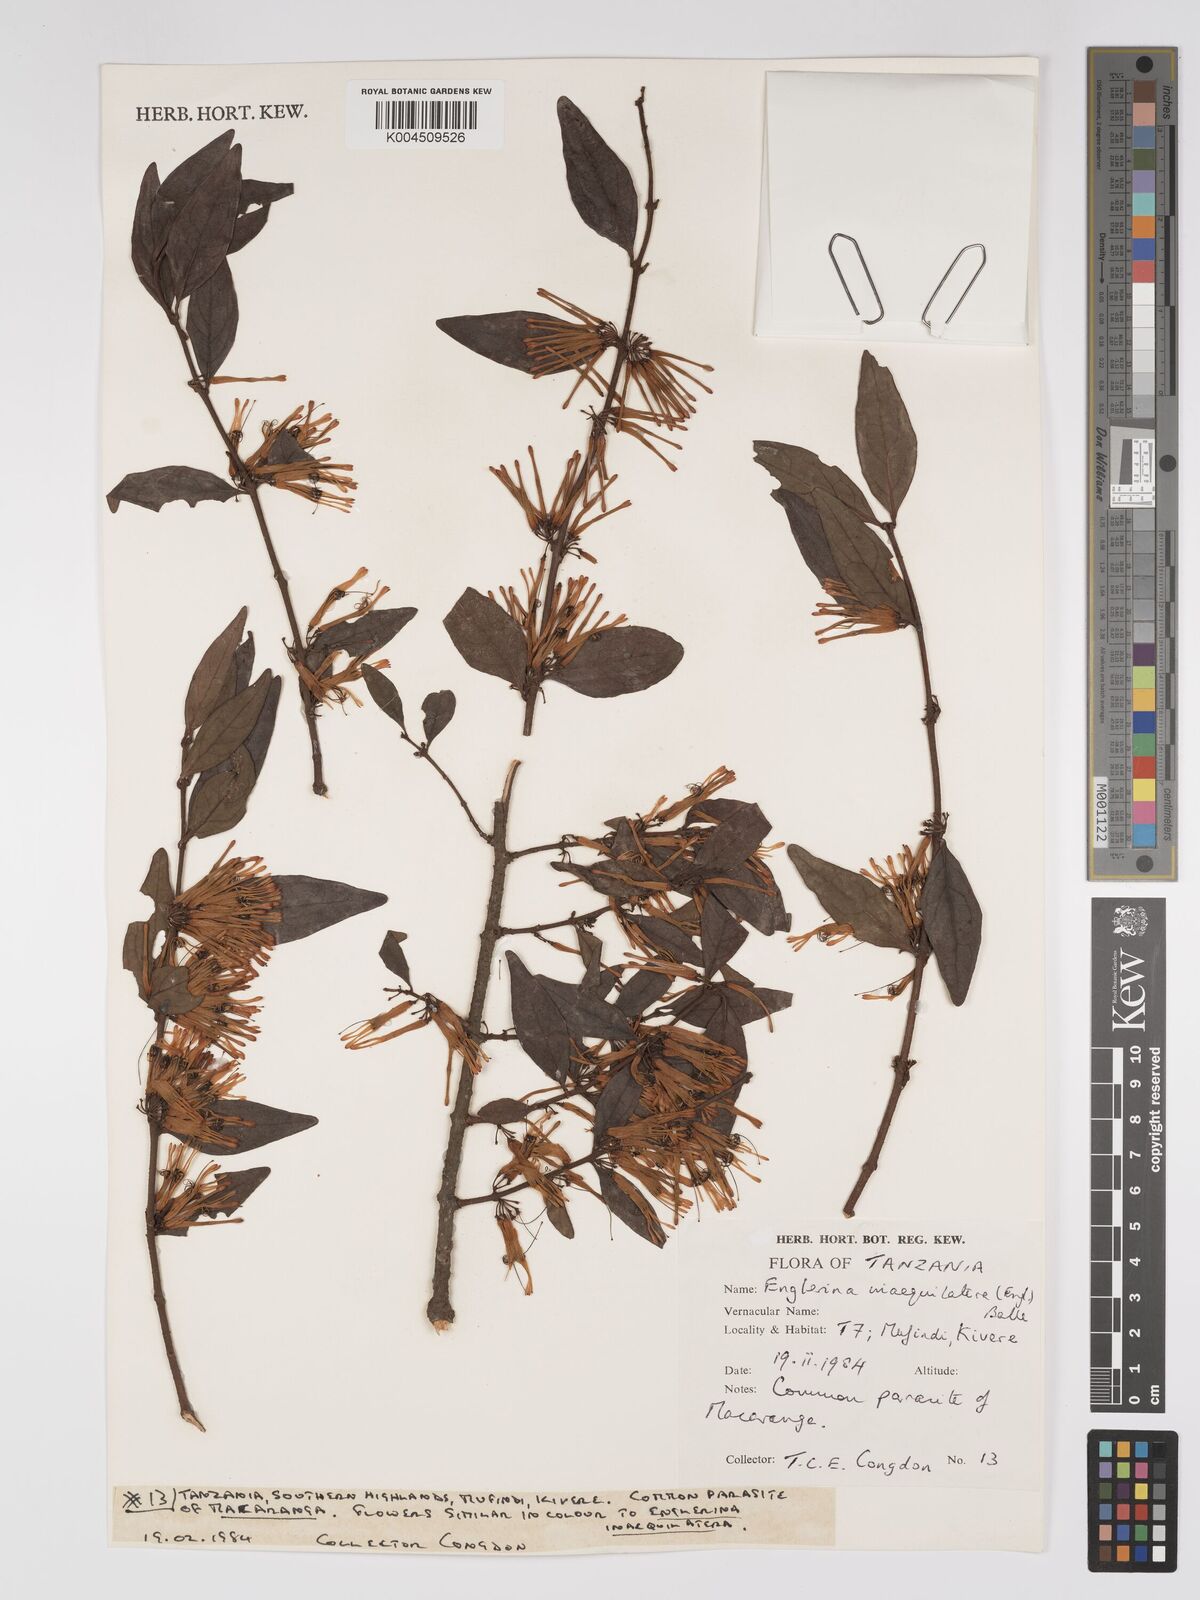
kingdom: Plantae
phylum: Tracheophyta
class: Magnoliopsida
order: Santalales
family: Loranthaceae
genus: Englerina
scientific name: Englerina inaequilatera
